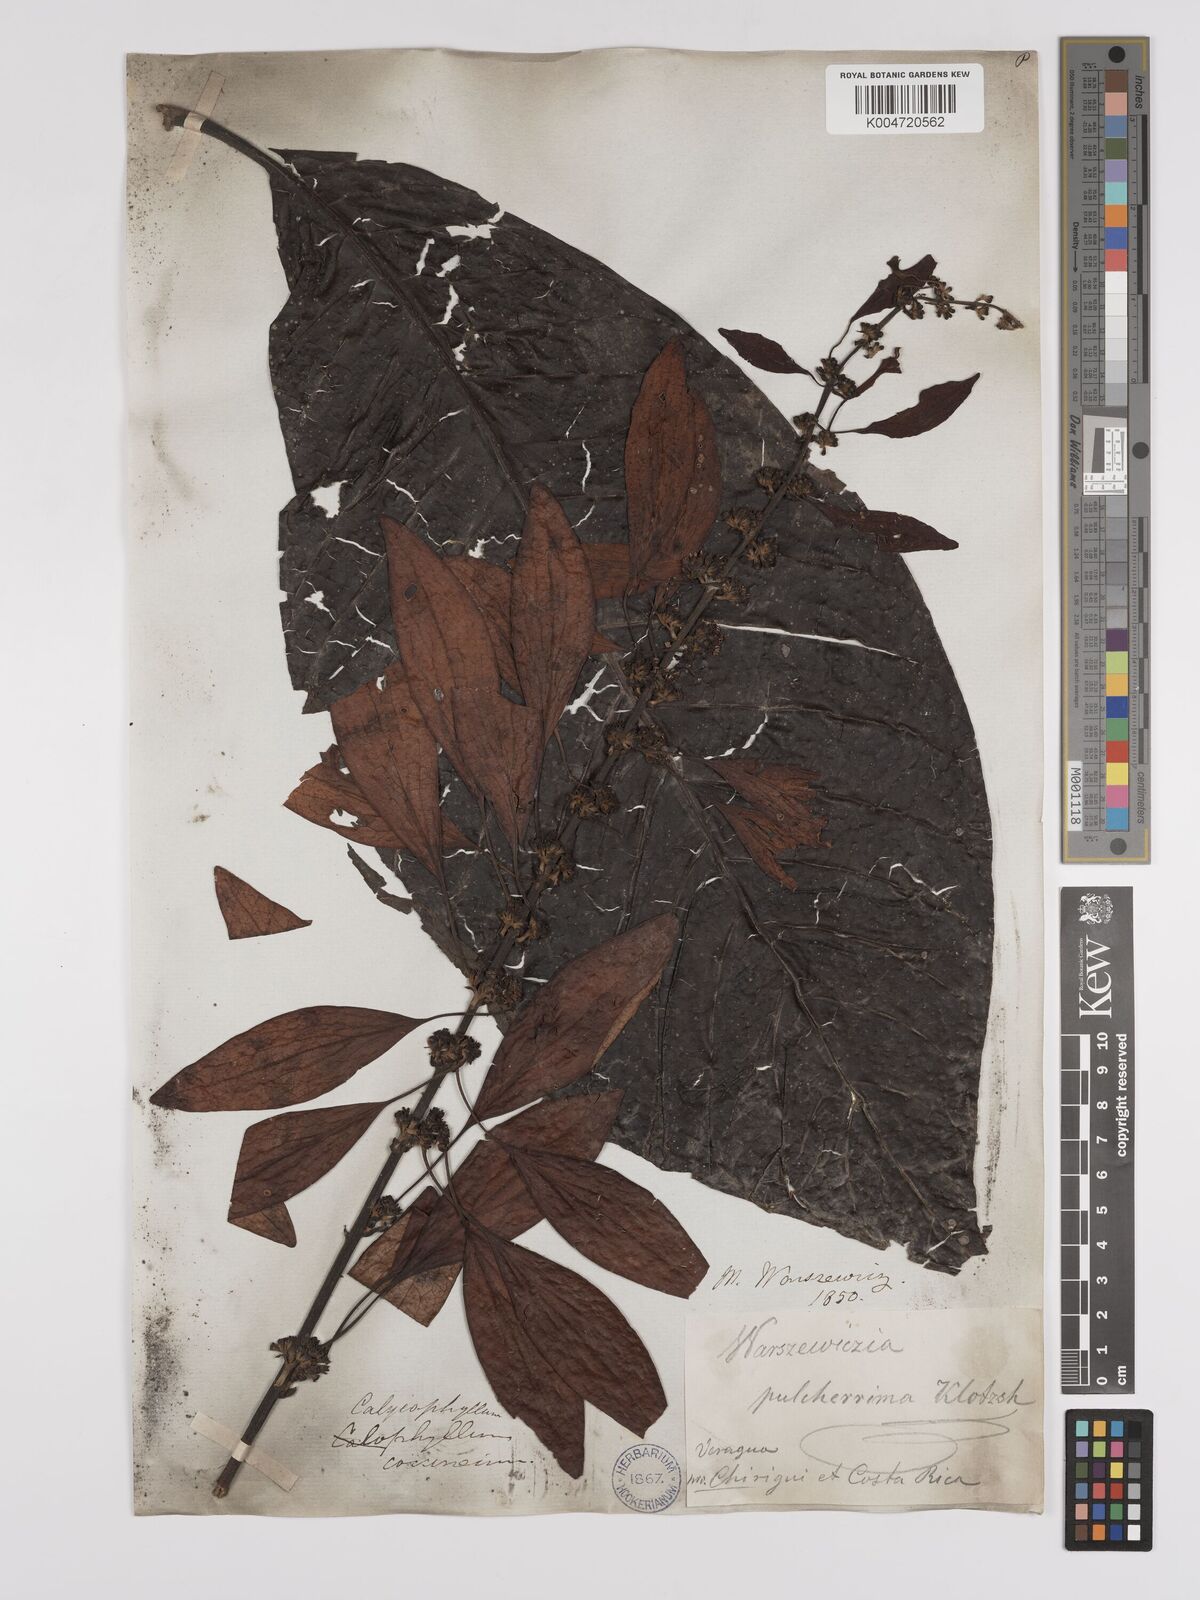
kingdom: Plantae
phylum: Tracheophyta
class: Magnoliopsida
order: Gentianales
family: Rubiaceae
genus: Warszewiczia
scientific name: Warszewiczia coccinea
